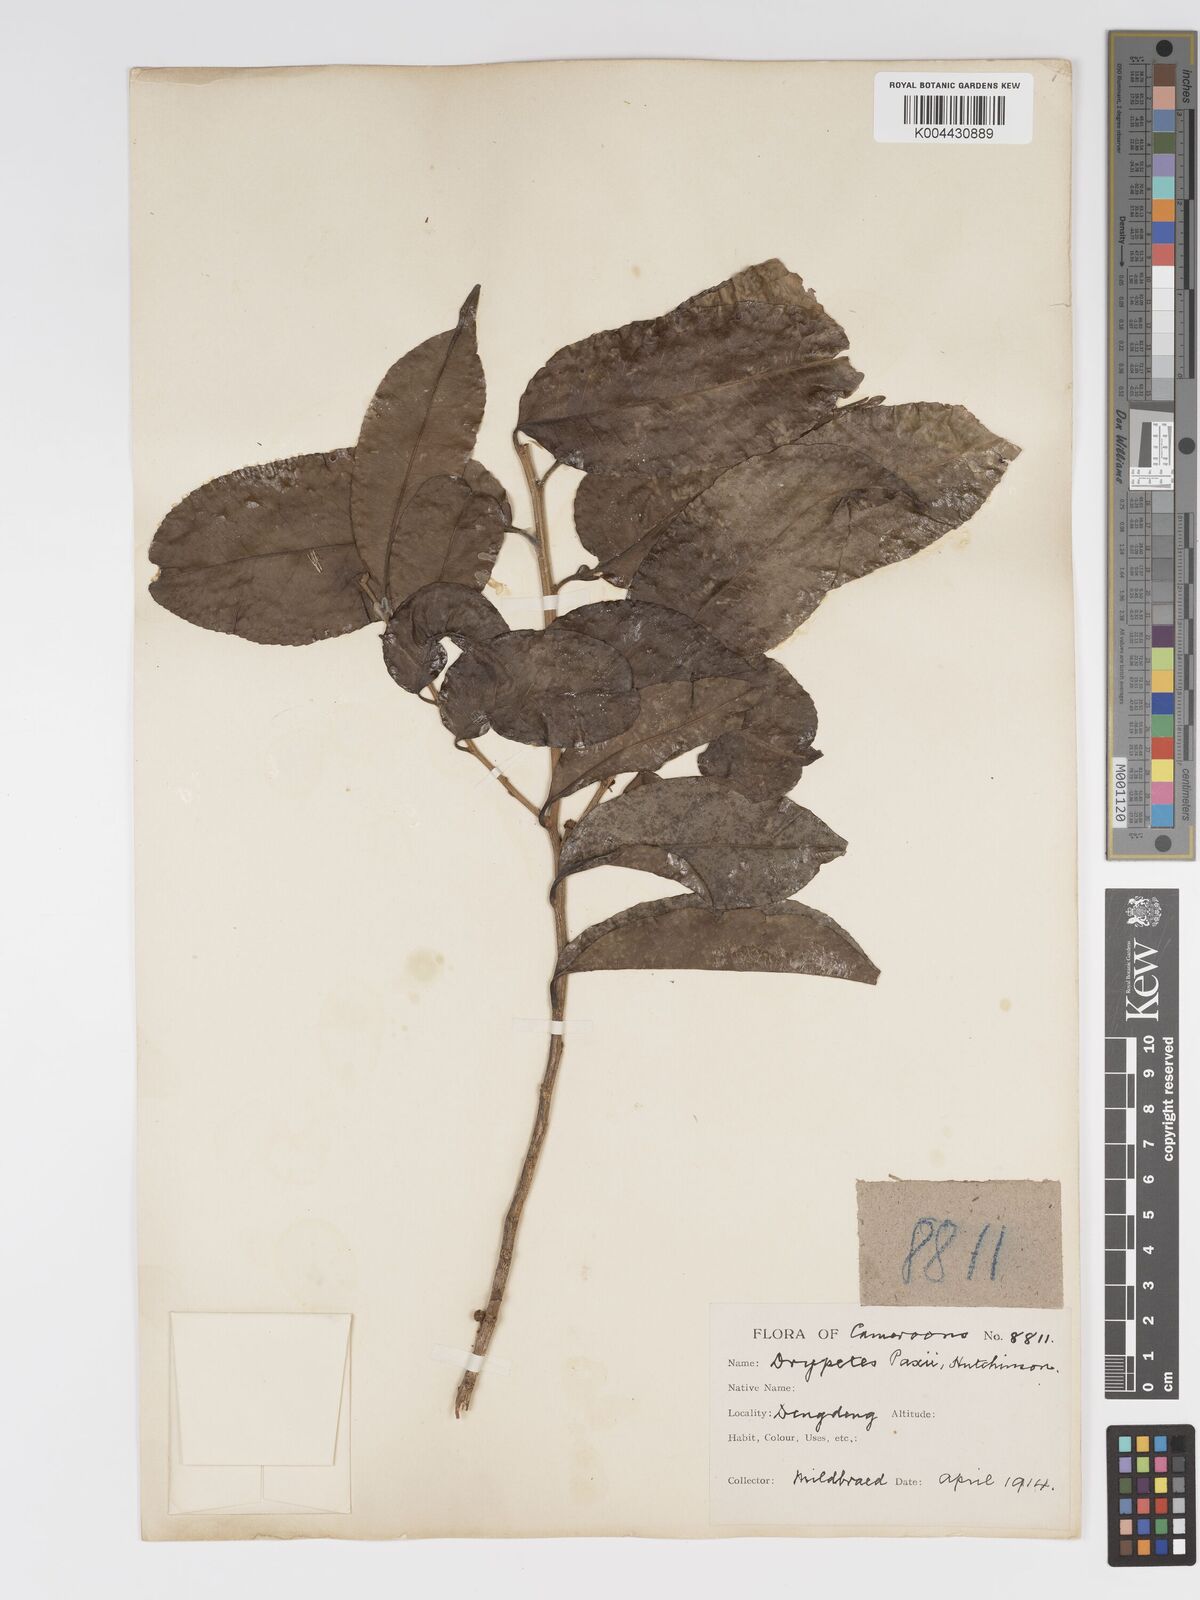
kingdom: Plantae
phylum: Tracheophyta
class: Magnoliopsida
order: Malpighiales
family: Putranjivaceae
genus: Drypetes
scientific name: Drypetes paxii
